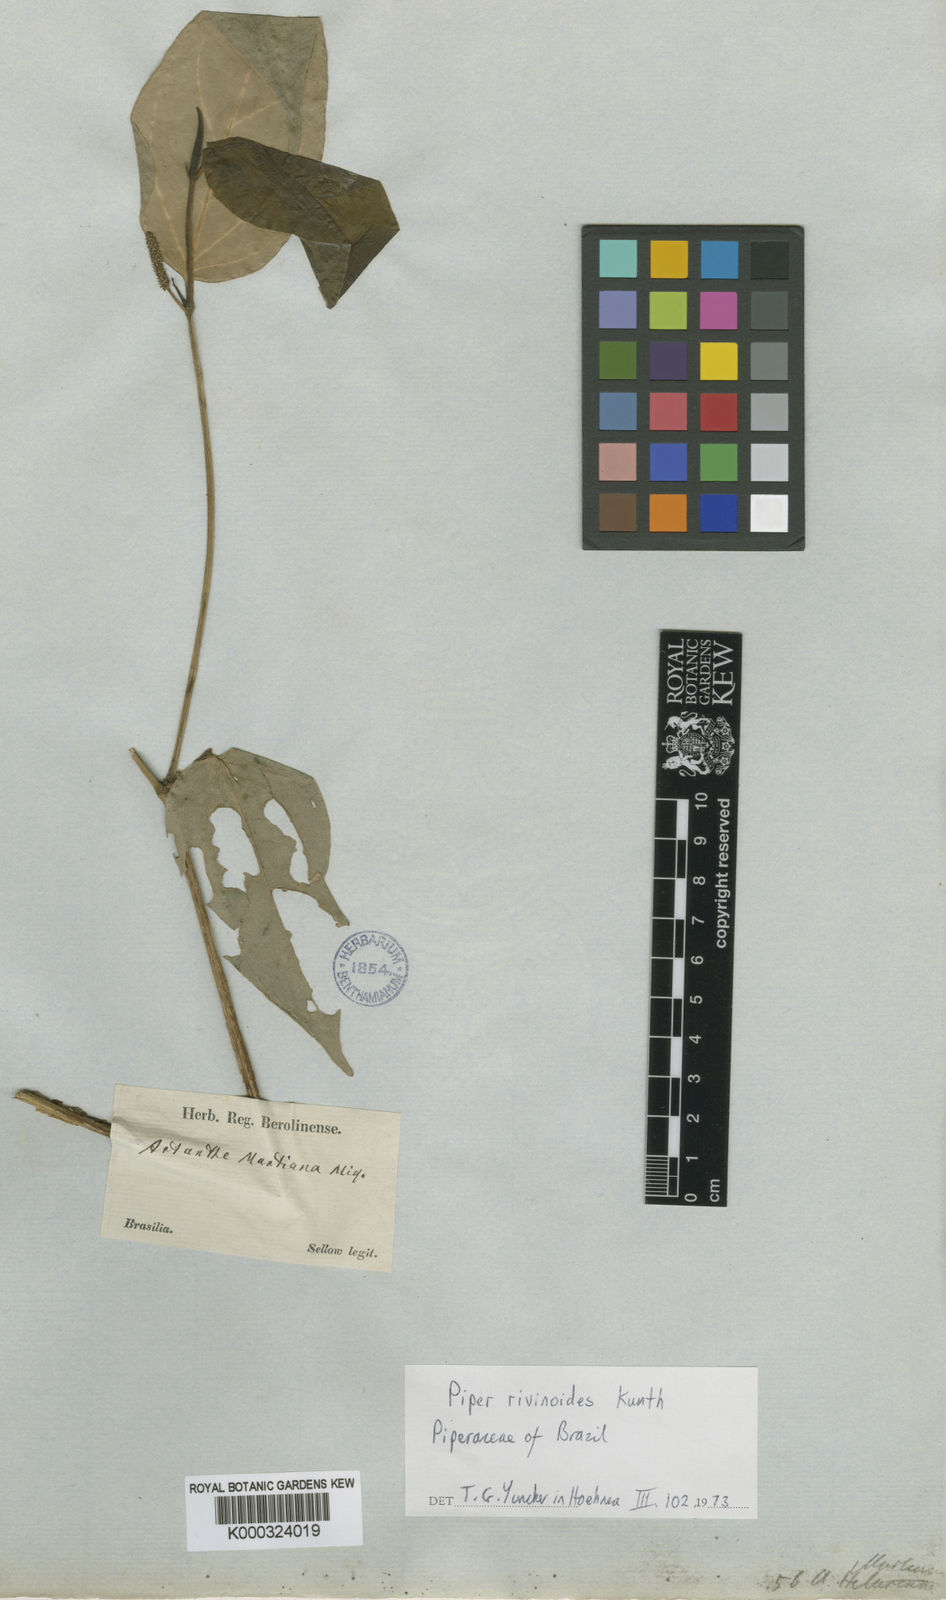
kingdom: Plantae
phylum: Tracheophyta
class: Magnoliopsida
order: Piperales
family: Piperaceae
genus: Piper
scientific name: Piper
